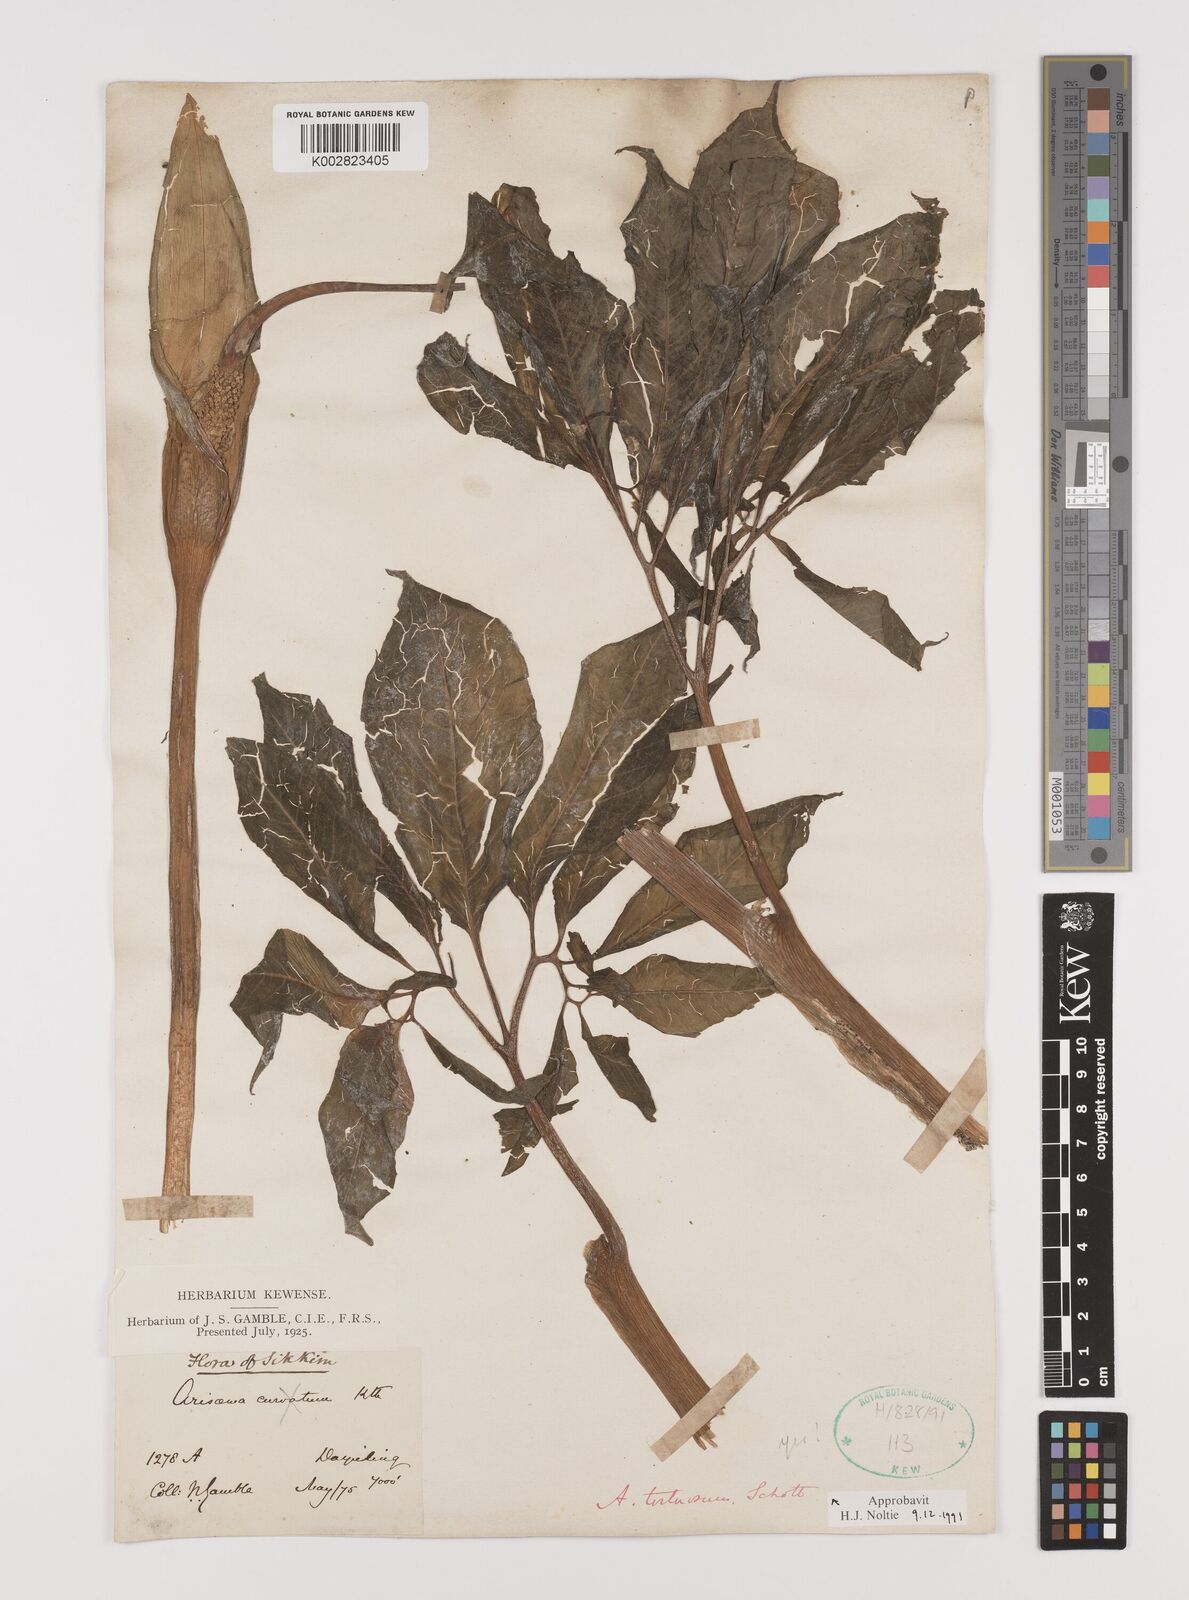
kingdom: Plantae
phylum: Tracheophyta
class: Liliopsida
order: Alismatales
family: Araceae
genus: Arisaema
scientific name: Arisaema tortuosum
